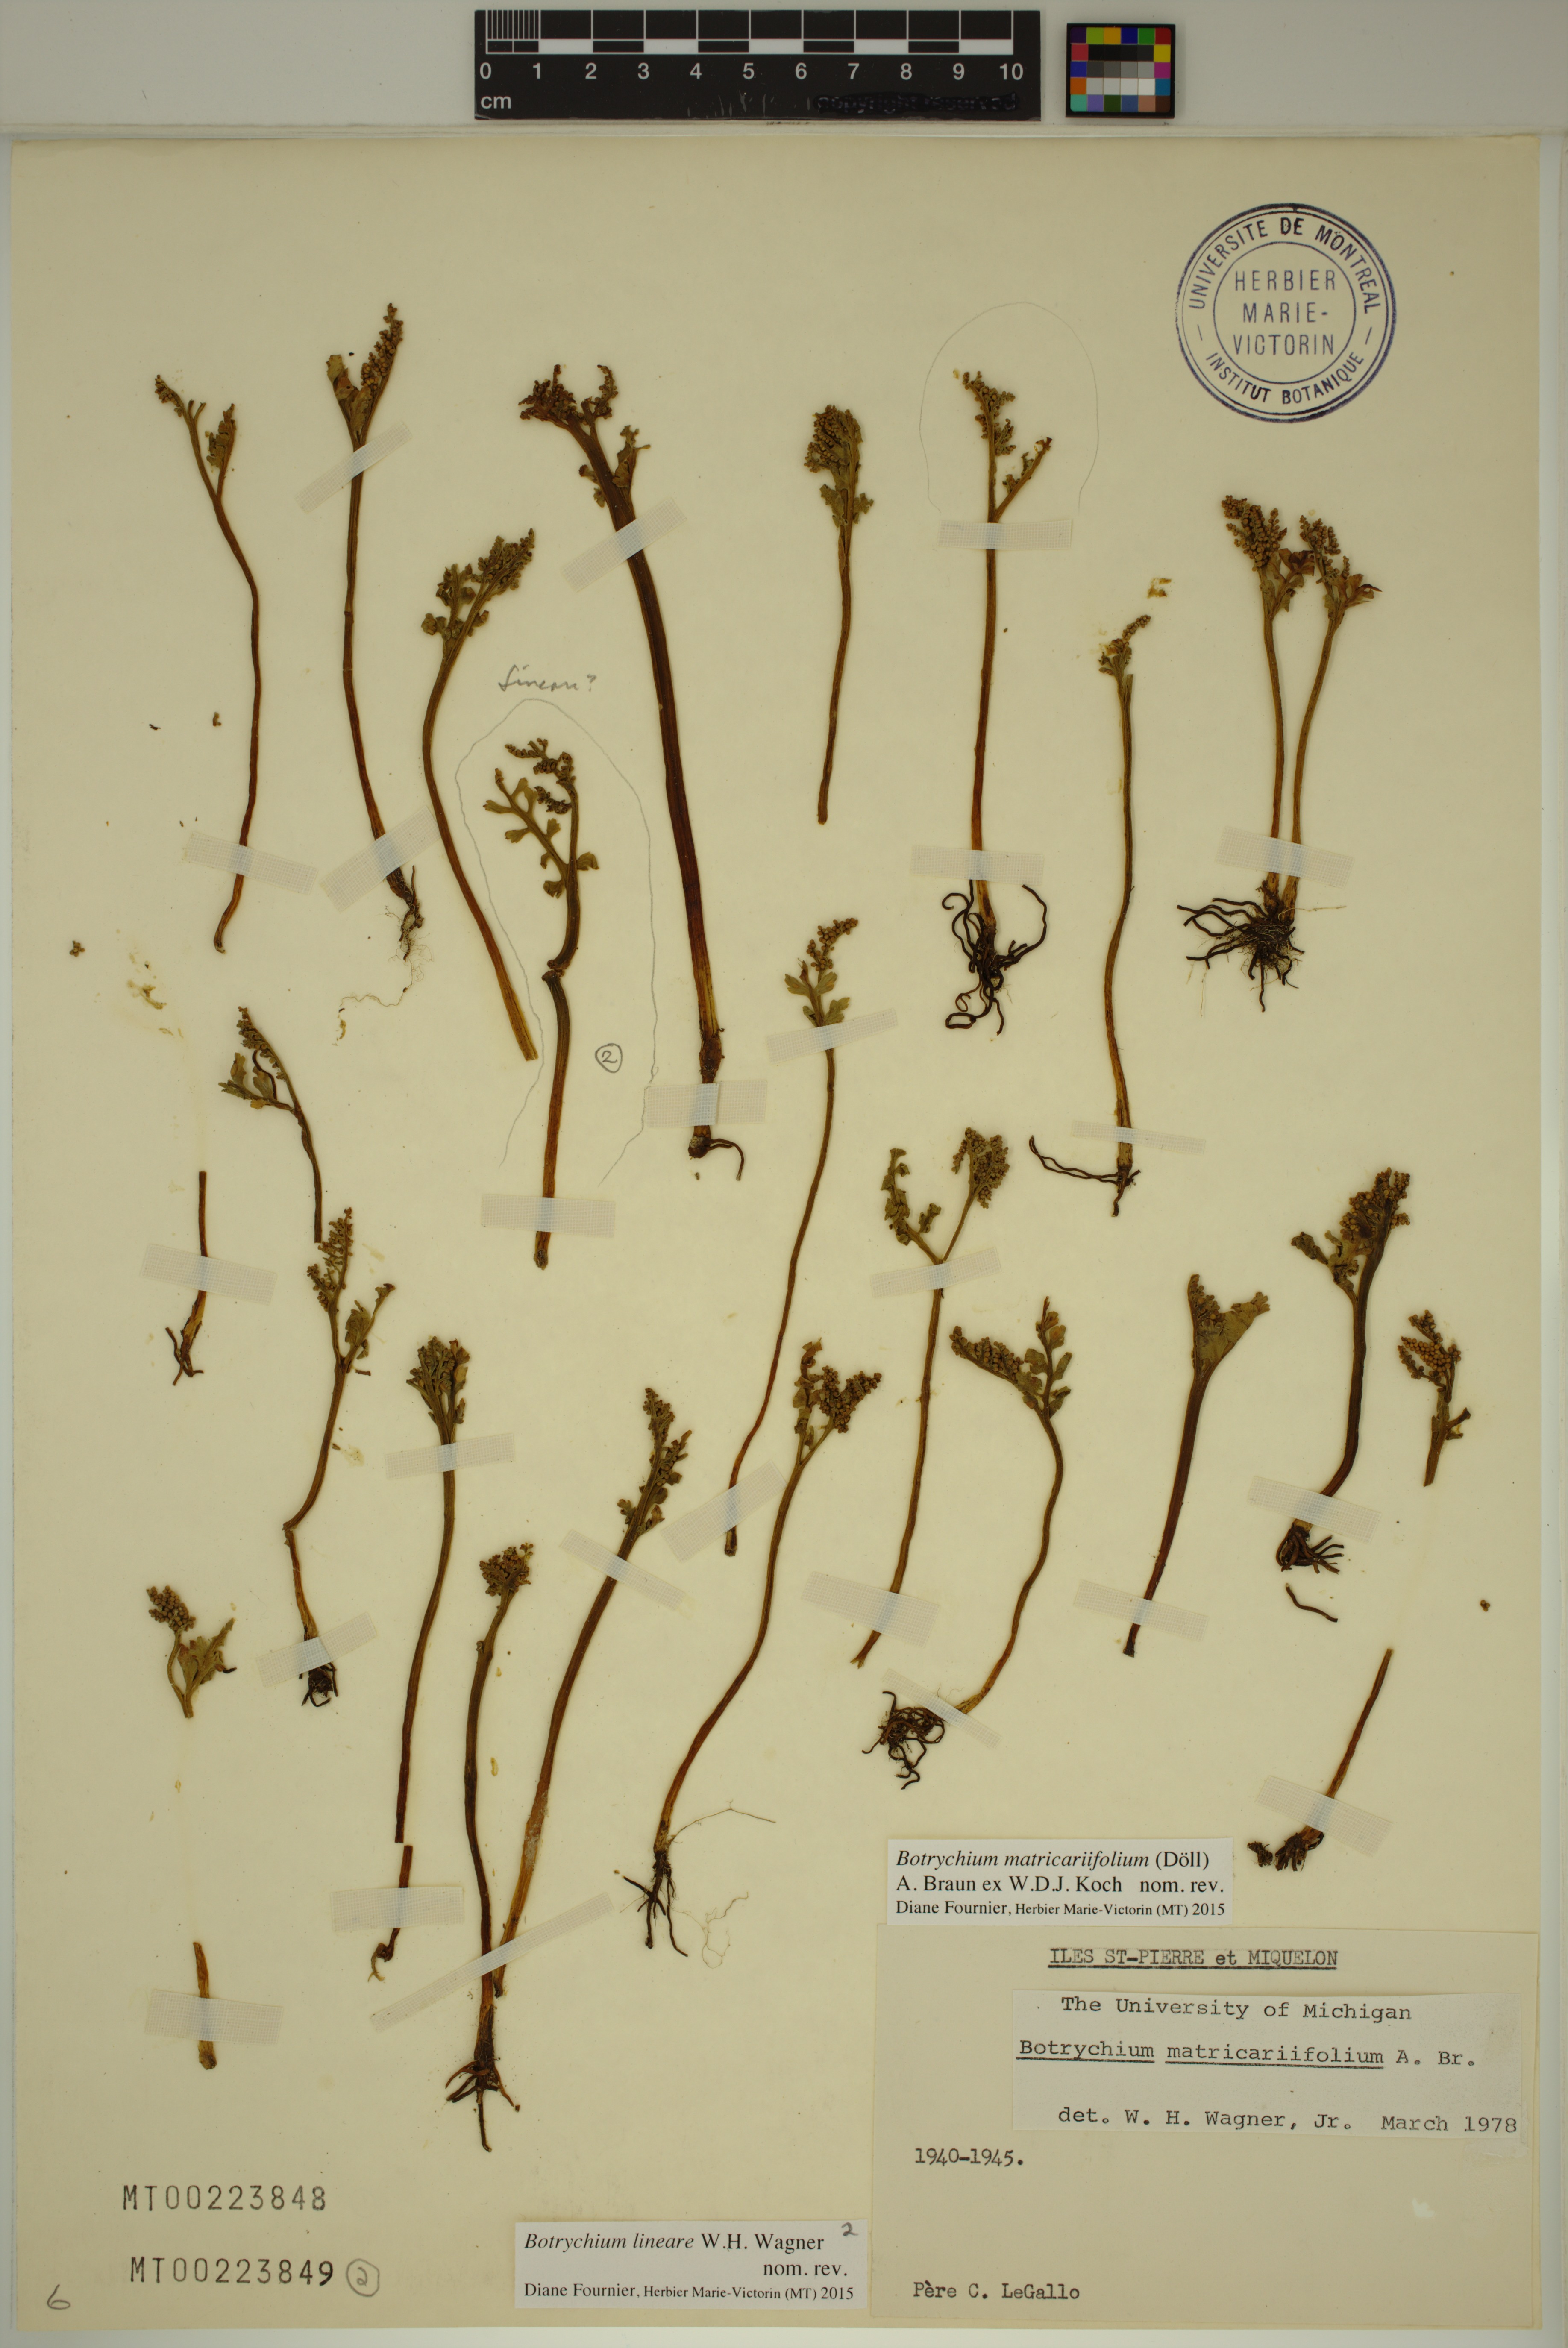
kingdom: Plantae
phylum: Tracheophyta
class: Polypodiopsida
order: Ophioglossales
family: Ophioglossaceae
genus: Botrychium
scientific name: Botrychium lineare
